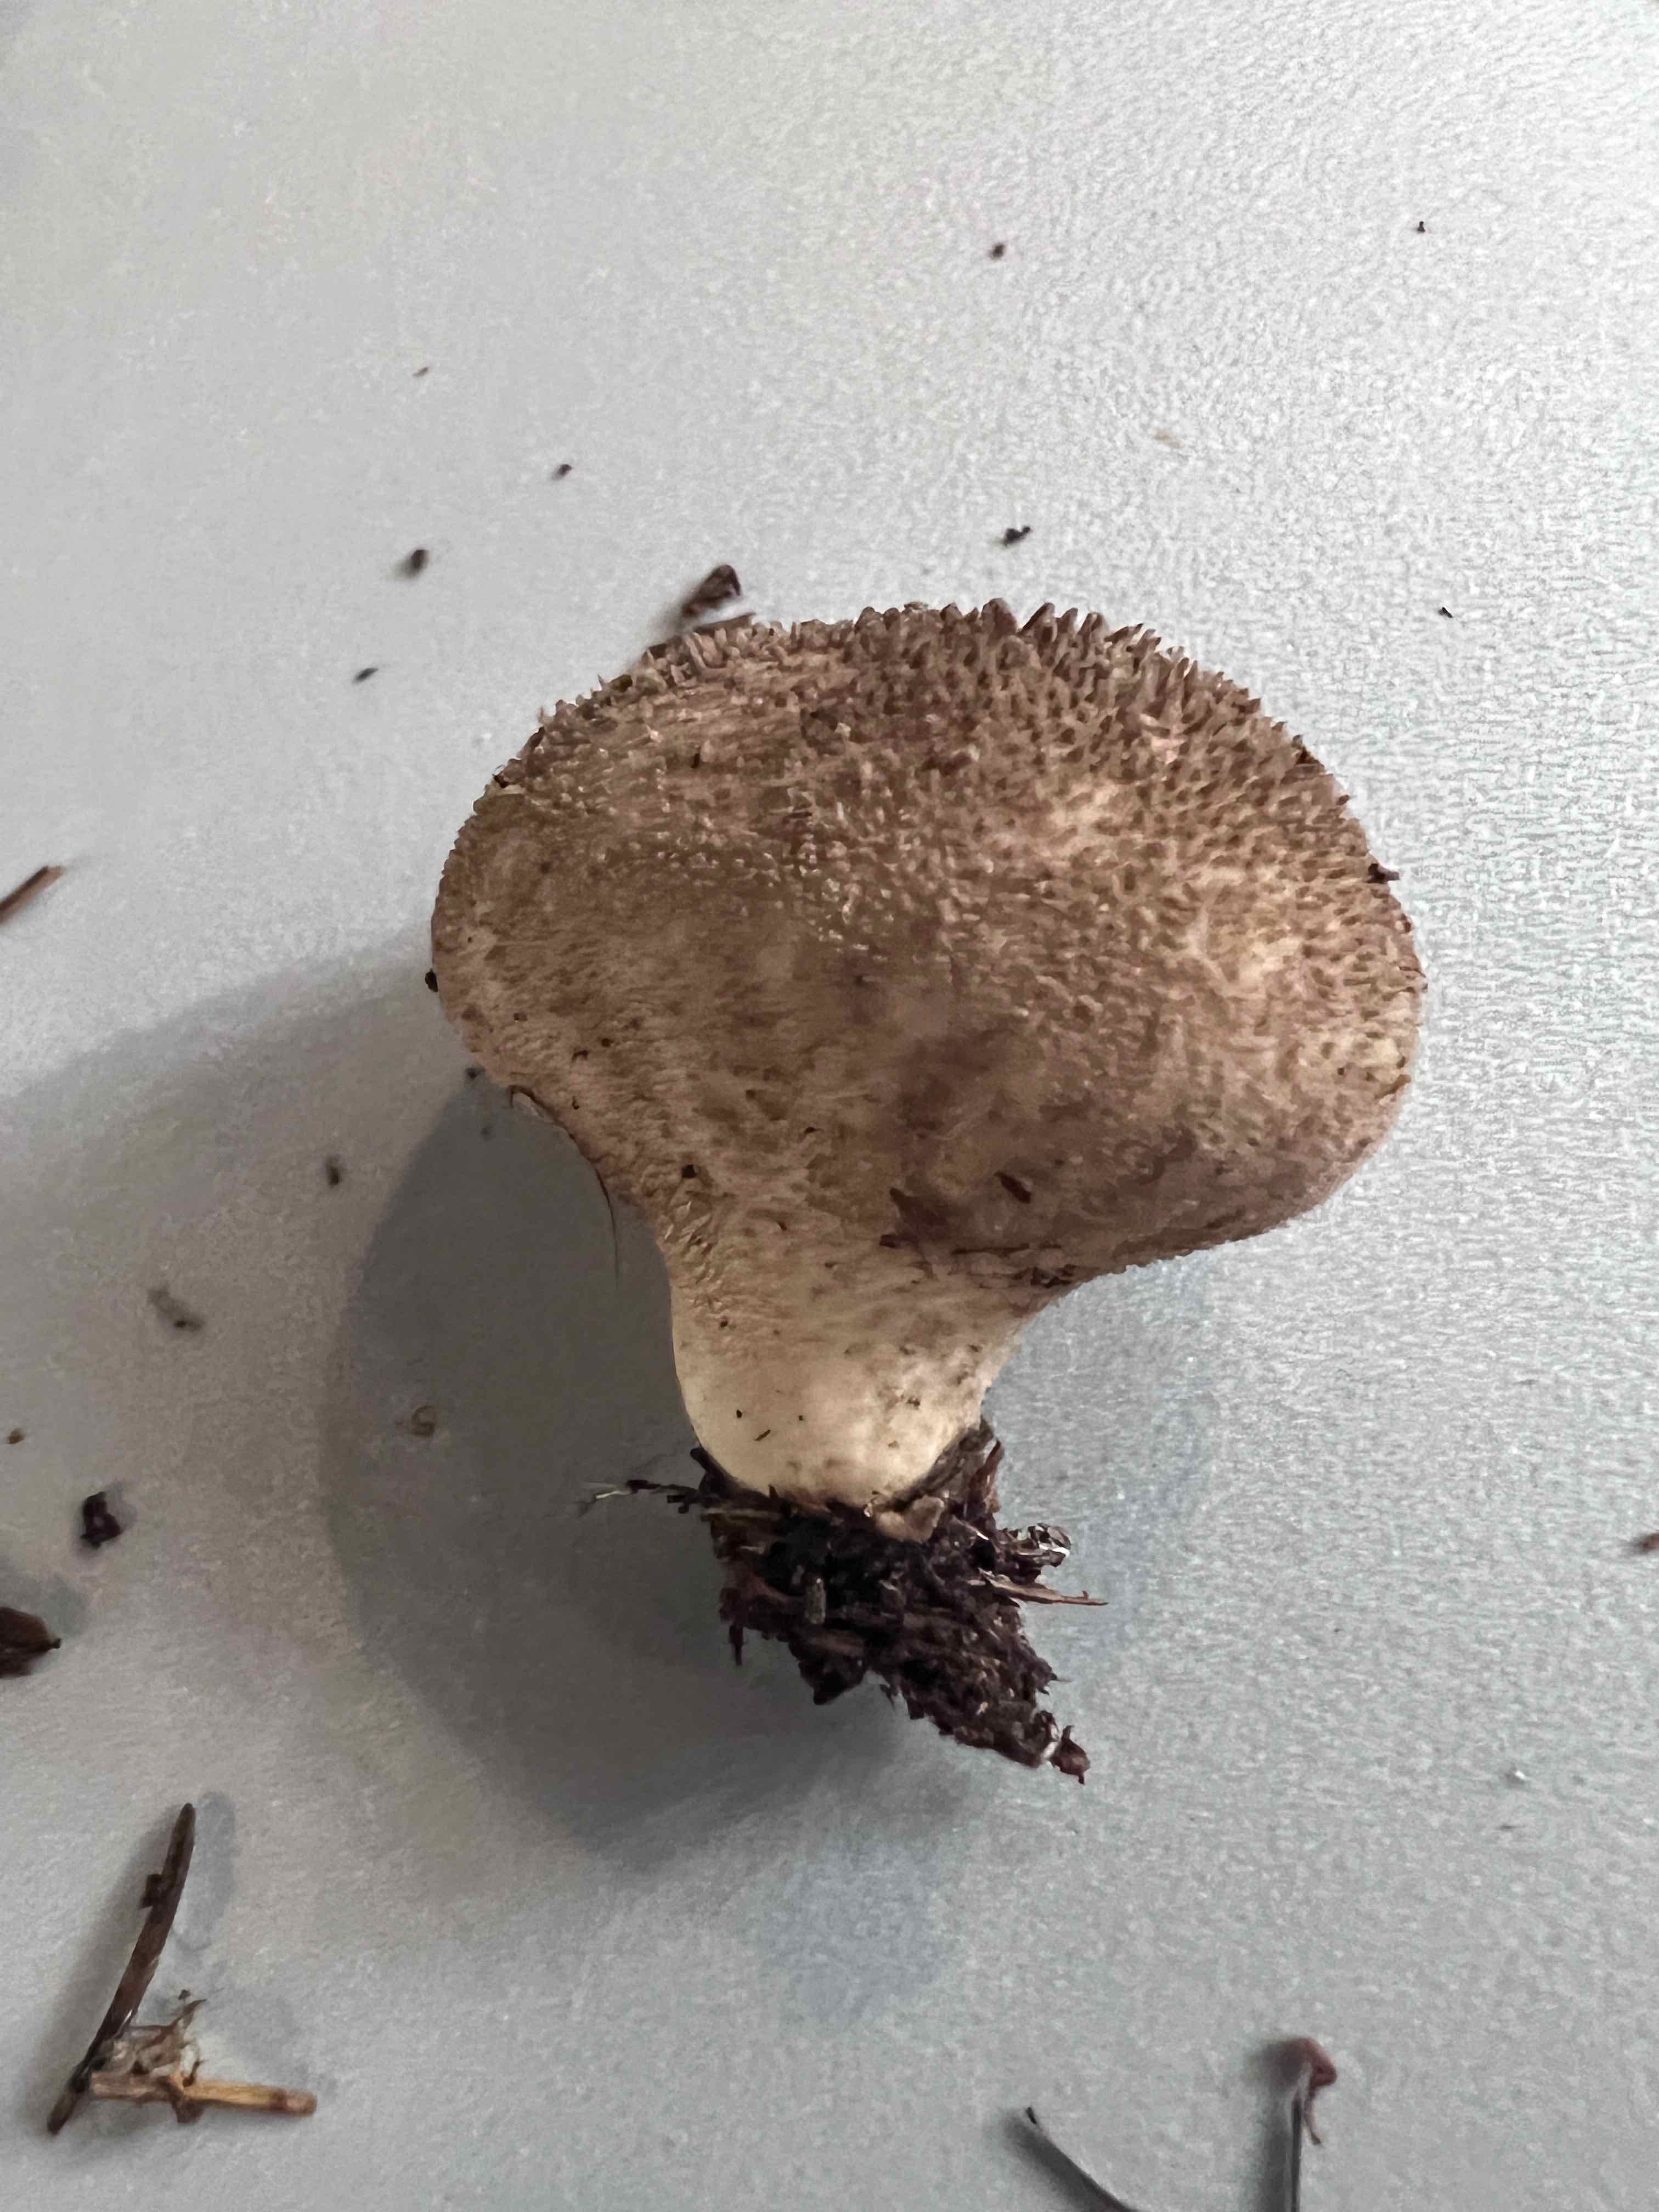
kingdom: Fungi
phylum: Basidiomycota
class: Agaricomycetes
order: Agaricales
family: Lycoperdaceae
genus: Lycoperdon
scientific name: Lycoperdon nigrescens
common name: sortagtig støvbold
